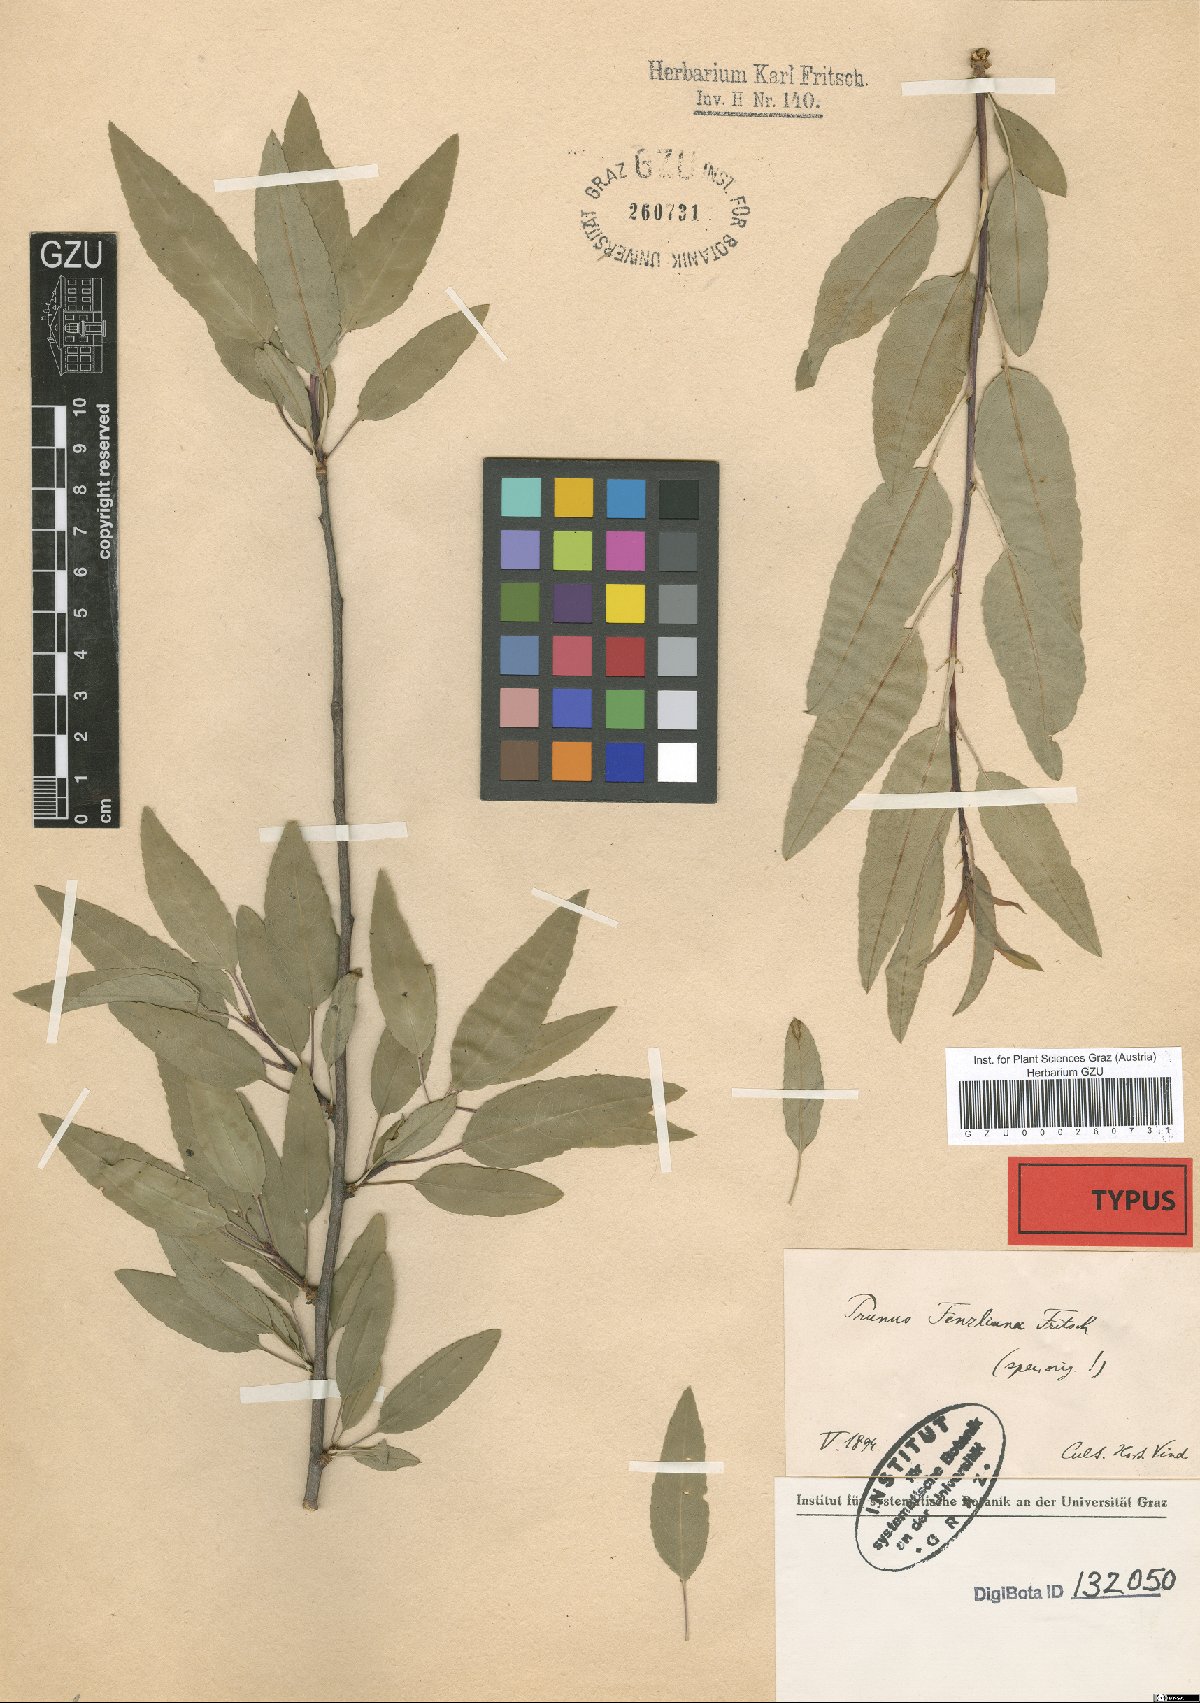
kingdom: Plantae
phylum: Tracheophyta
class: Magnoliopsida
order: Rosales
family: Rosaceae
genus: Prunus
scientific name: Prunus fenzliana
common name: Fenzls almond
